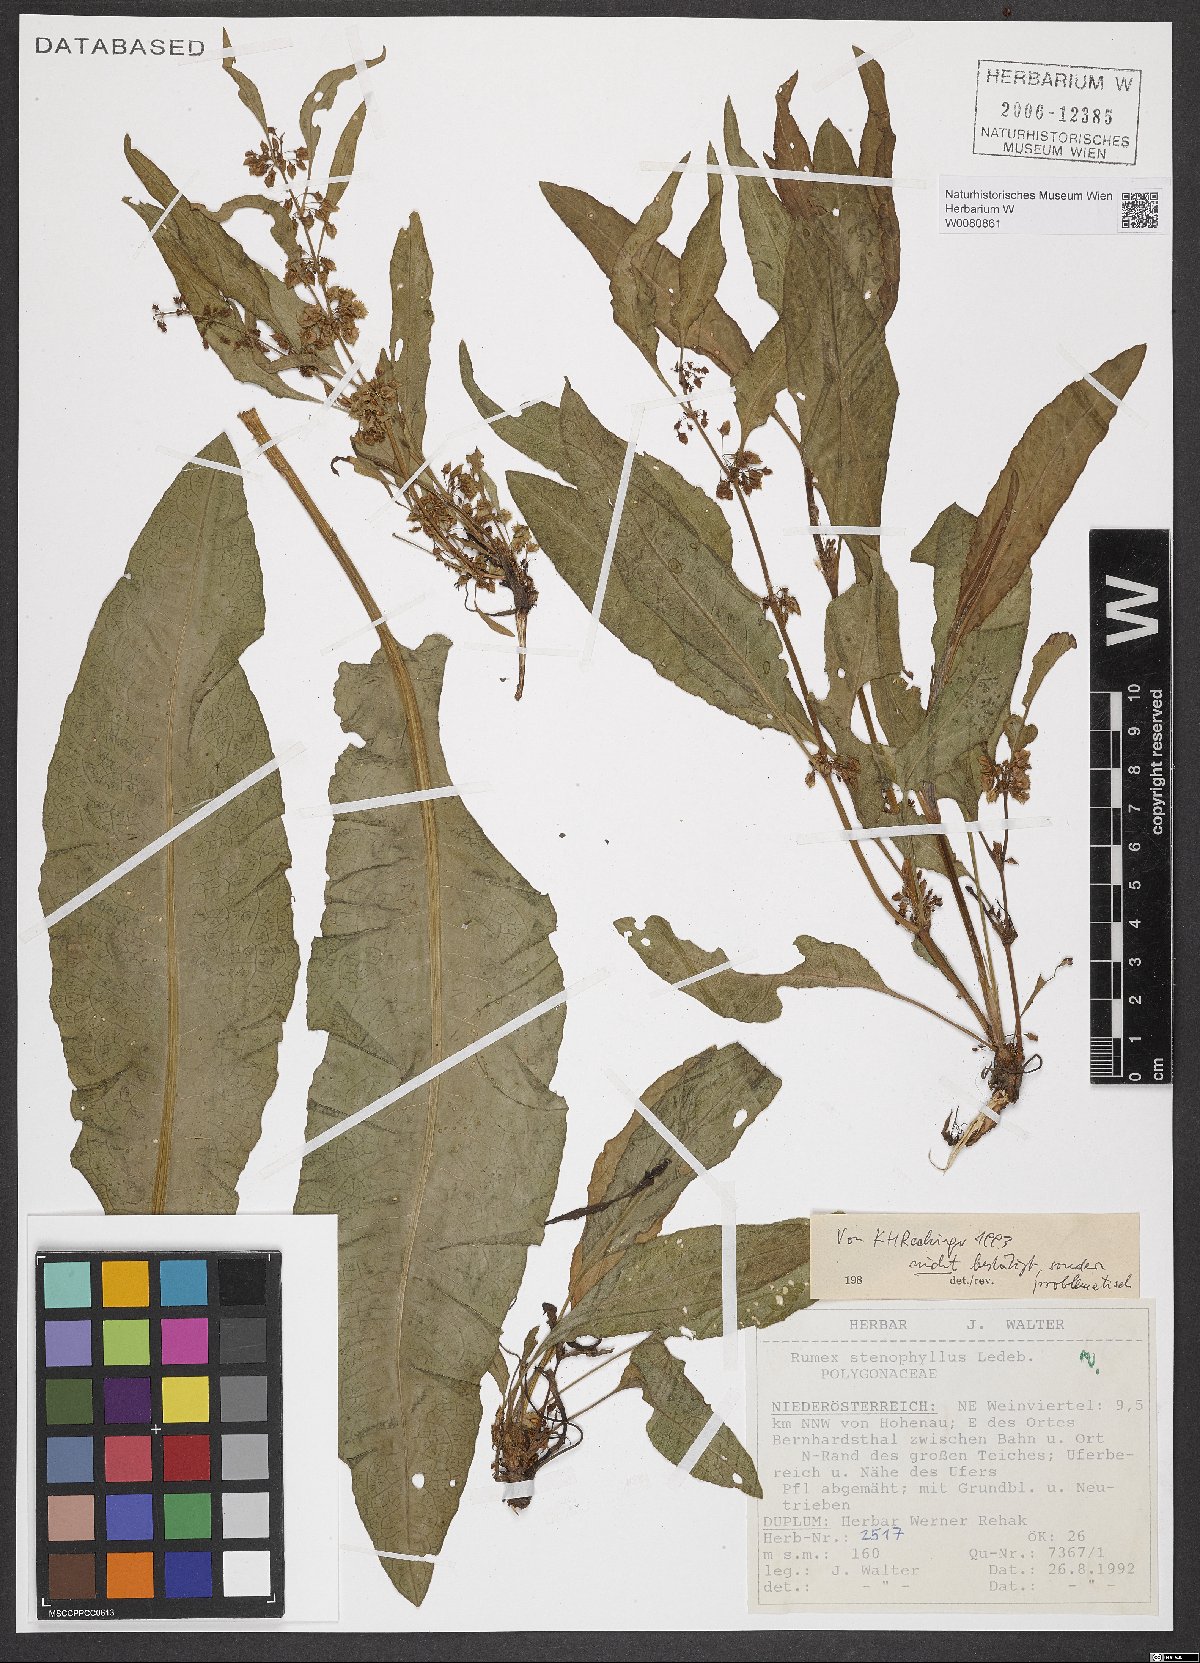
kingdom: Plantae
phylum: Tracheophyta
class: Magnoliopsida
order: Caryophyllales
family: Polygonaceae
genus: Rumex
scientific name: Rumex stenophyllus
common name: Narrowleaf dock
